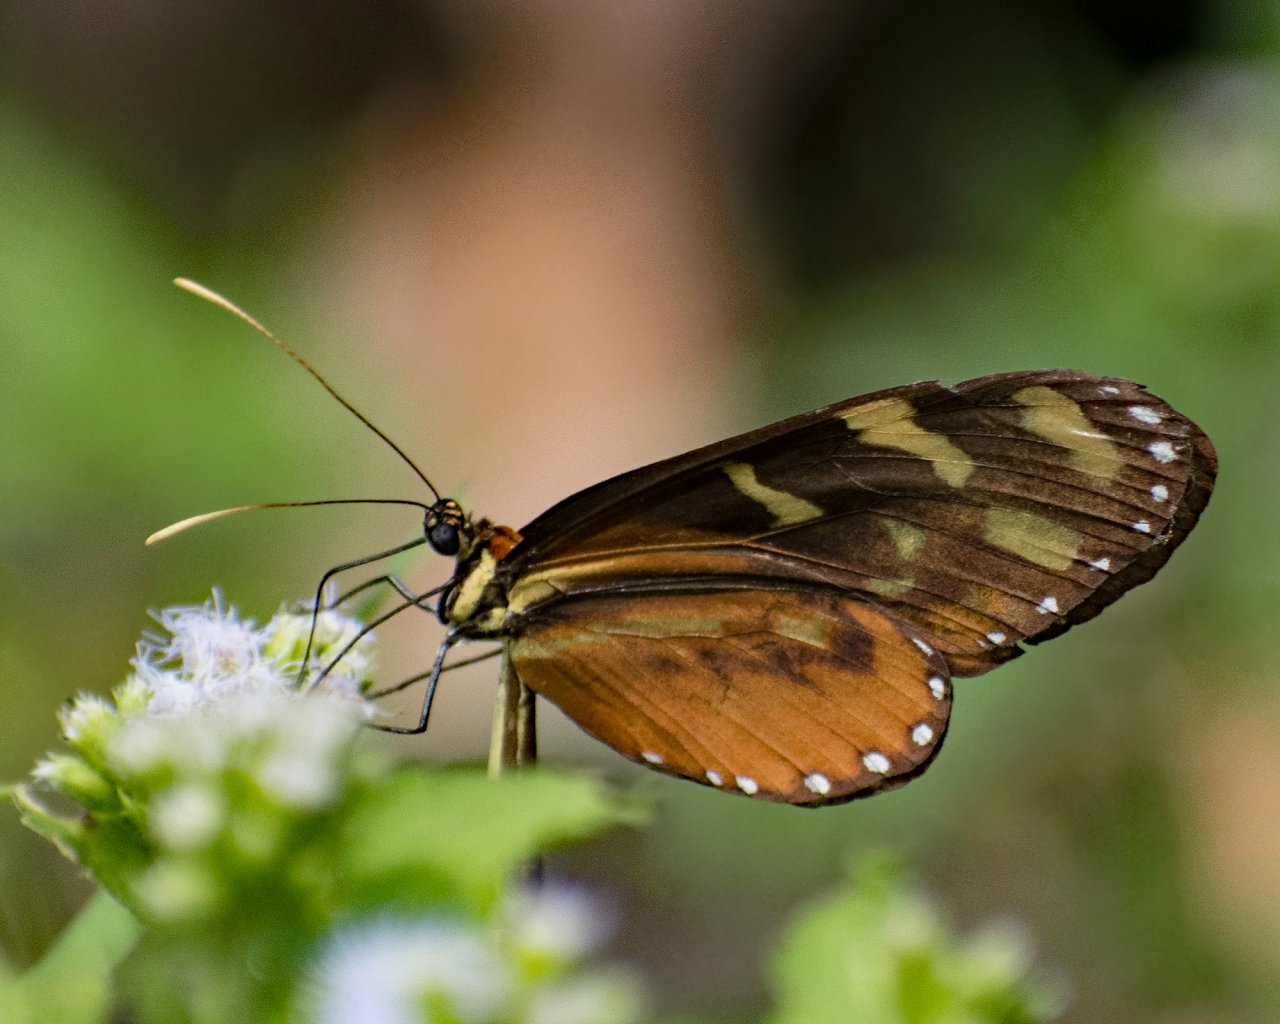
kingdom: Animalia
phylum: Arthropoda
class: Insecta
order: Lepidoptera
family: Nymphalidae
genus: Mechanitis
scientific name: Mechanitis polymnia
